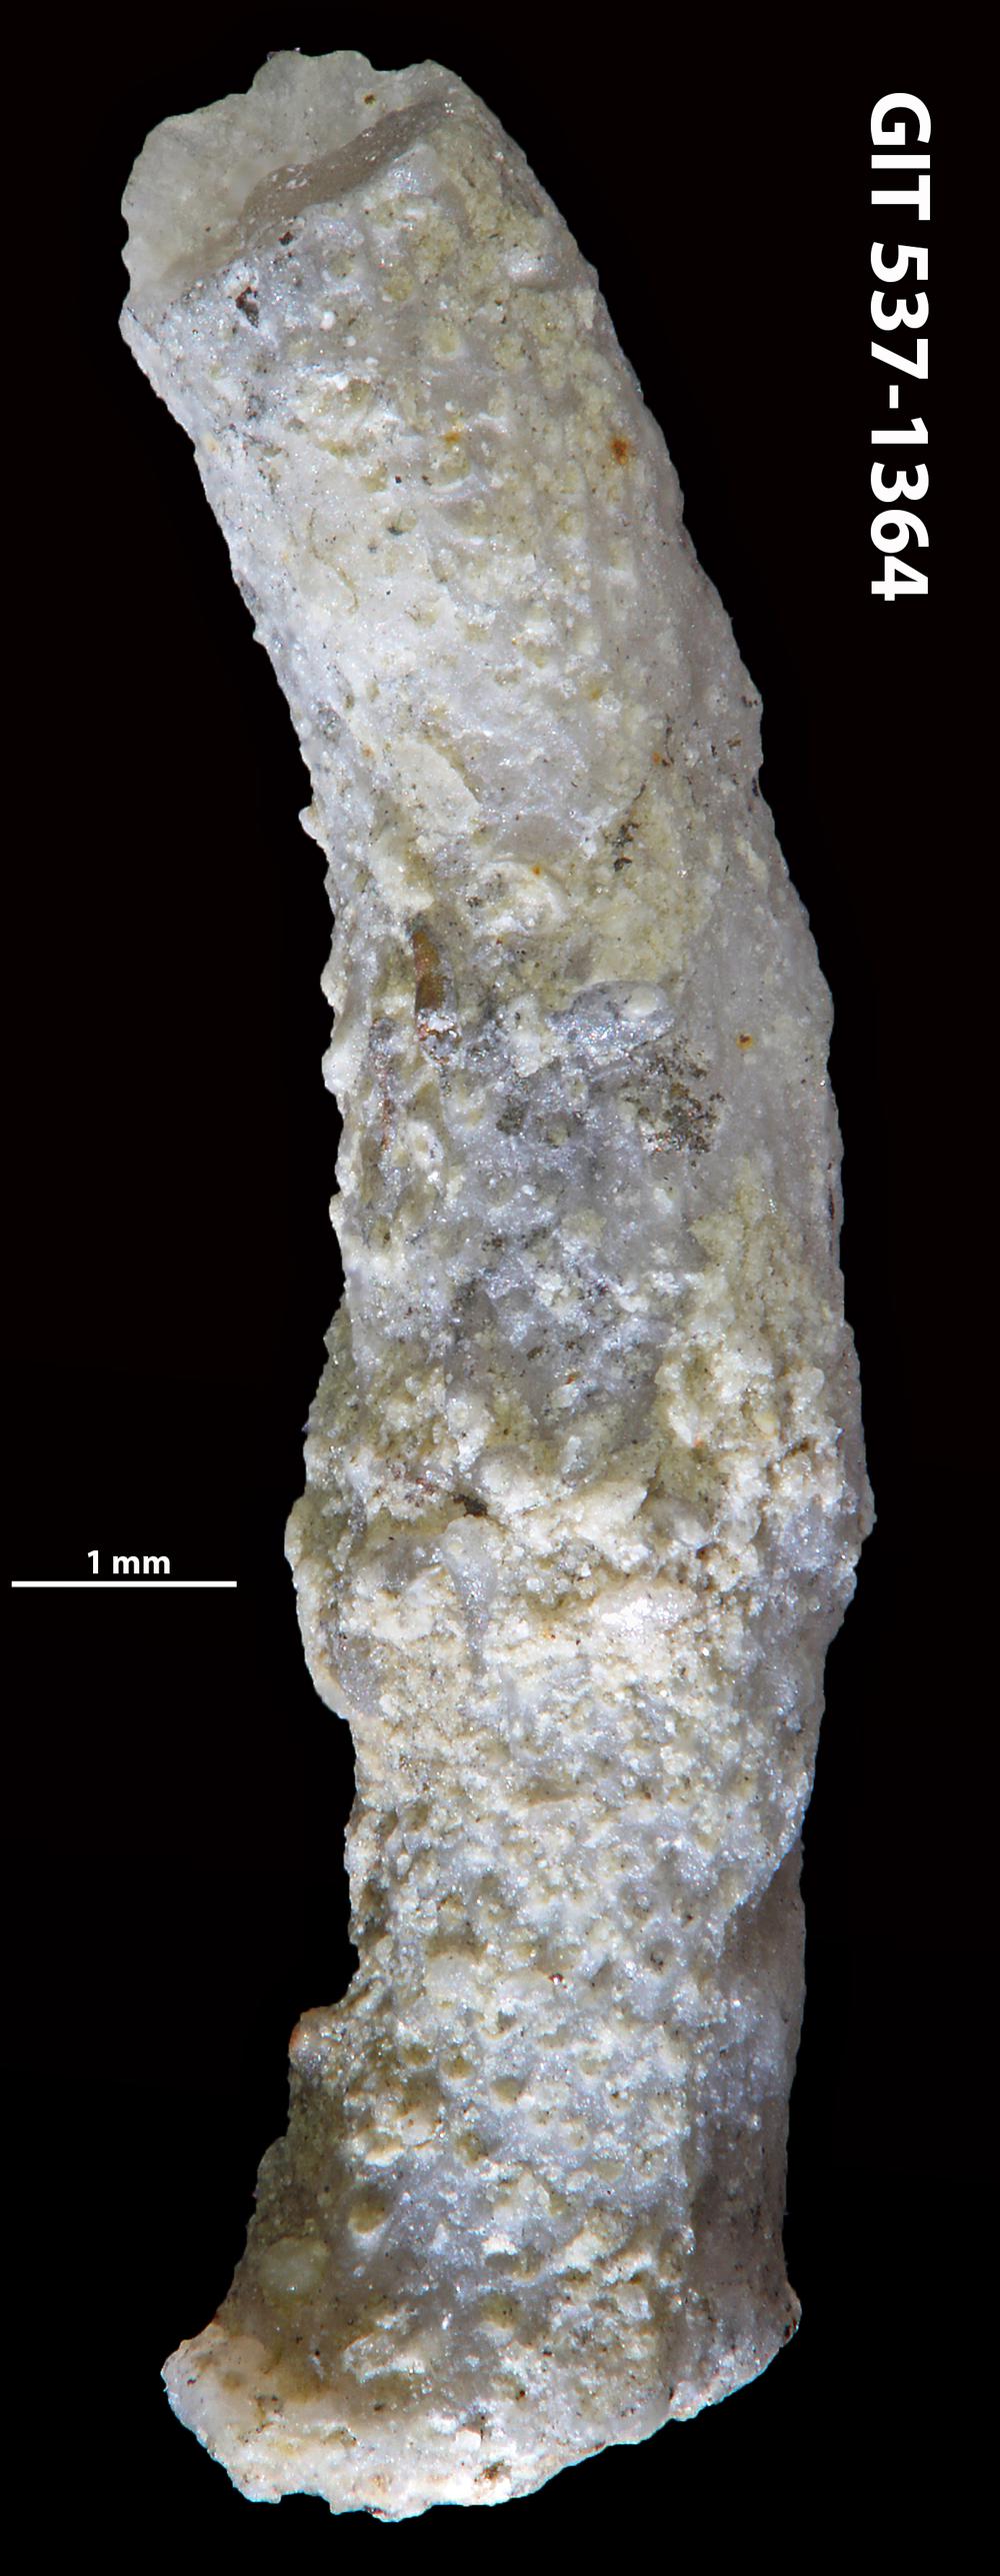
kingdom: Animalia
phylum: Bryozoa
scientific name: Bryozoa
